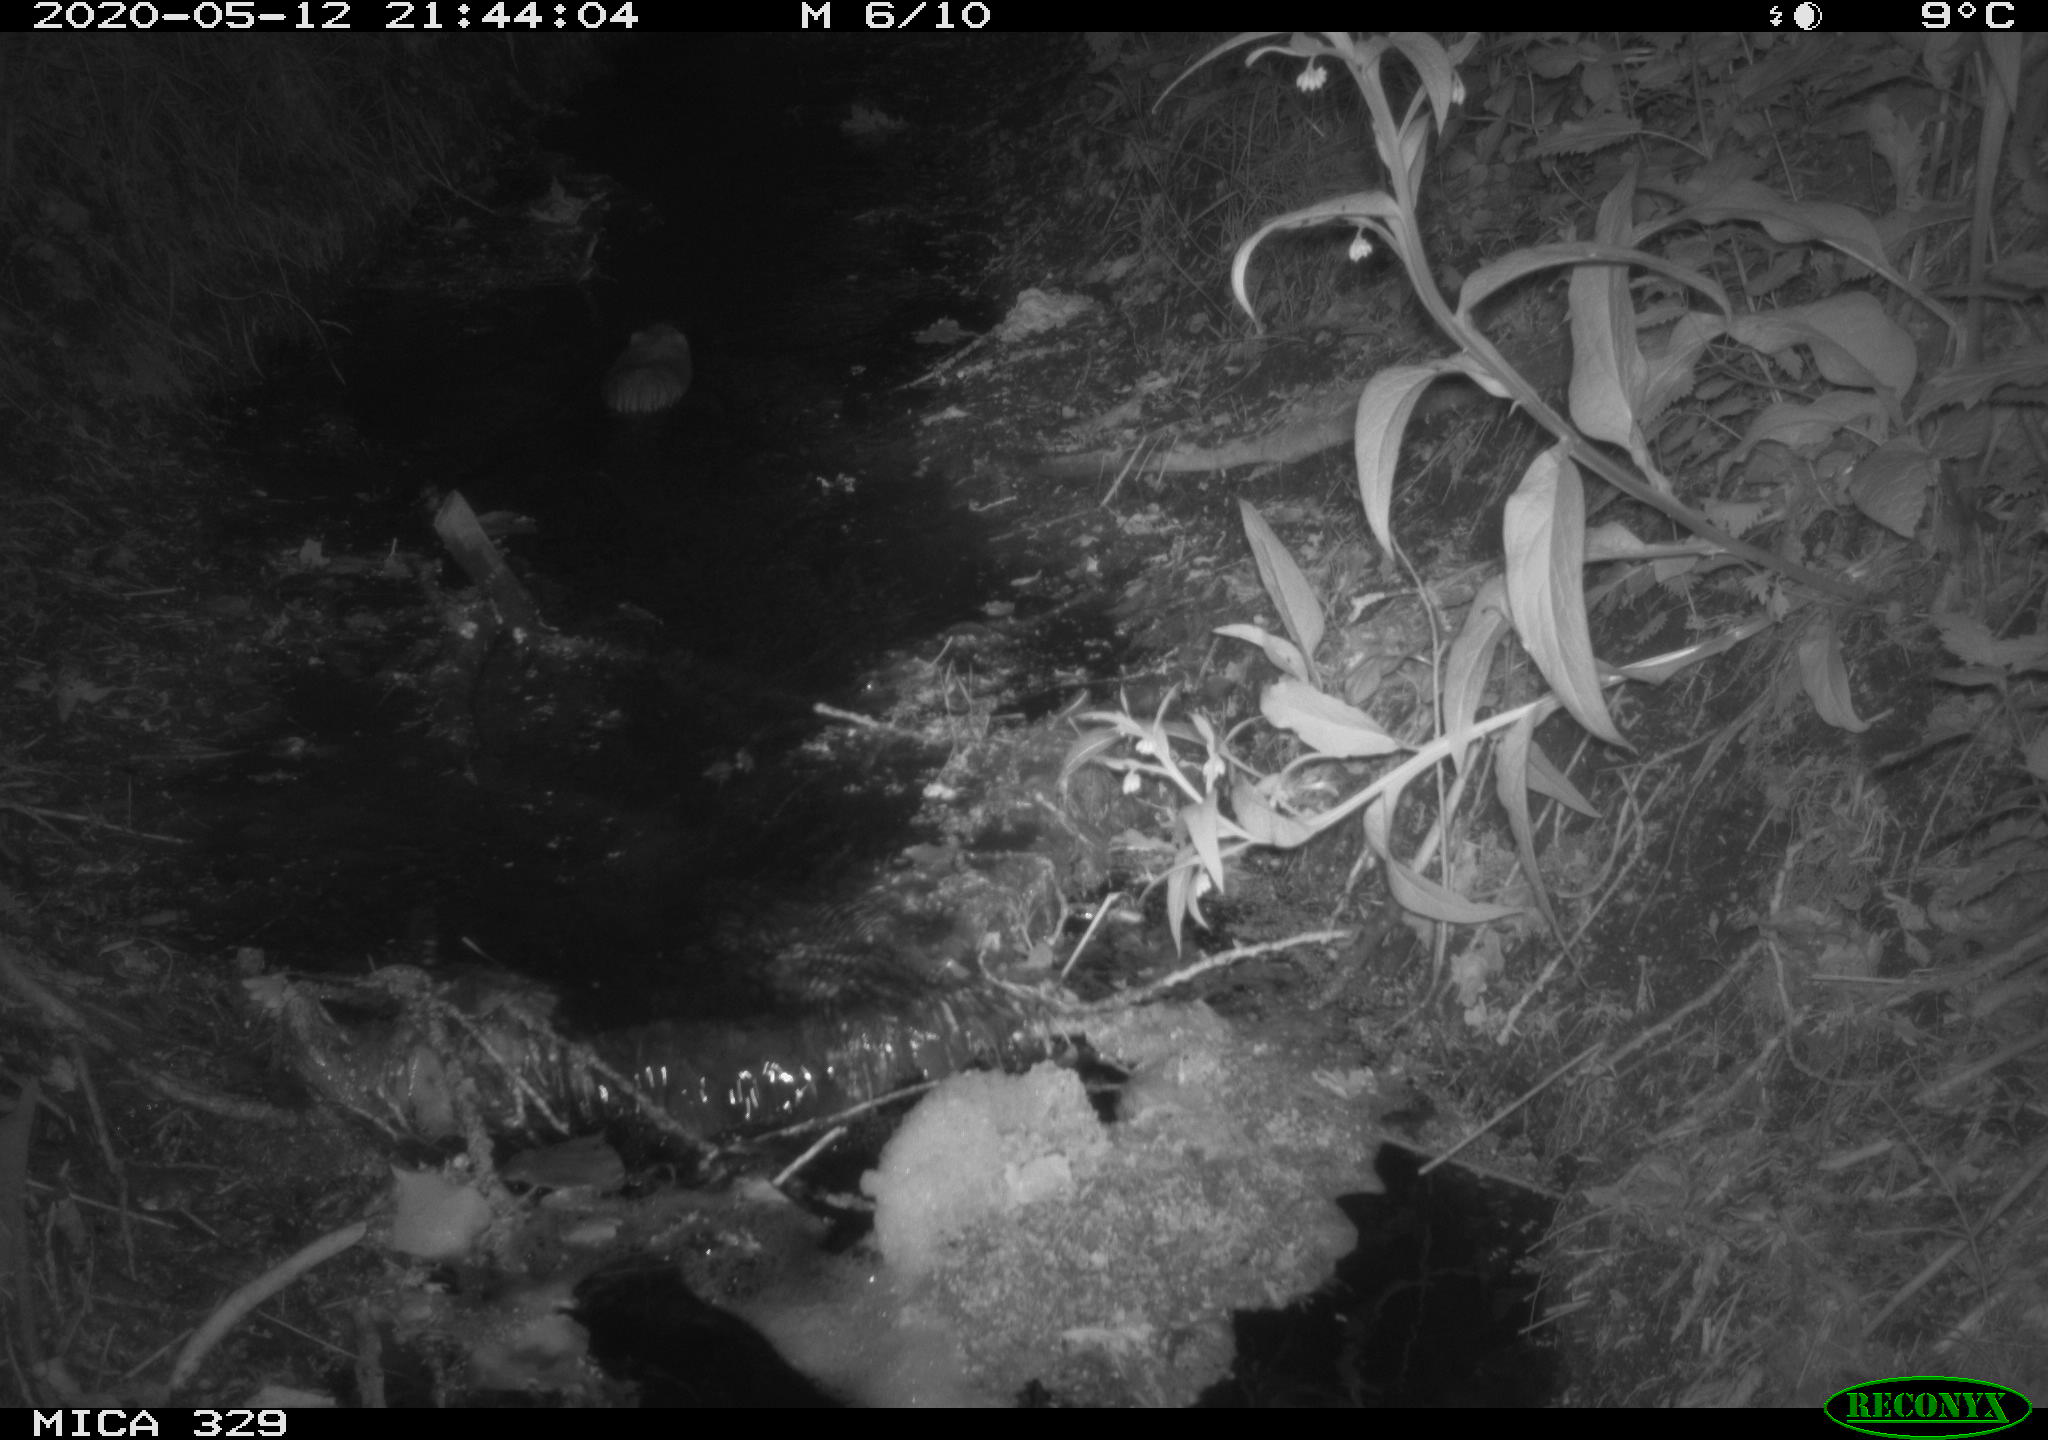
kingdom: Animalia
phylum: Chordata
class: Mammalia
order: Rodentia
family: Cricetidae
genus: Ondatra
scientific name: Ondatra zibethicus
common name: Muskrat
